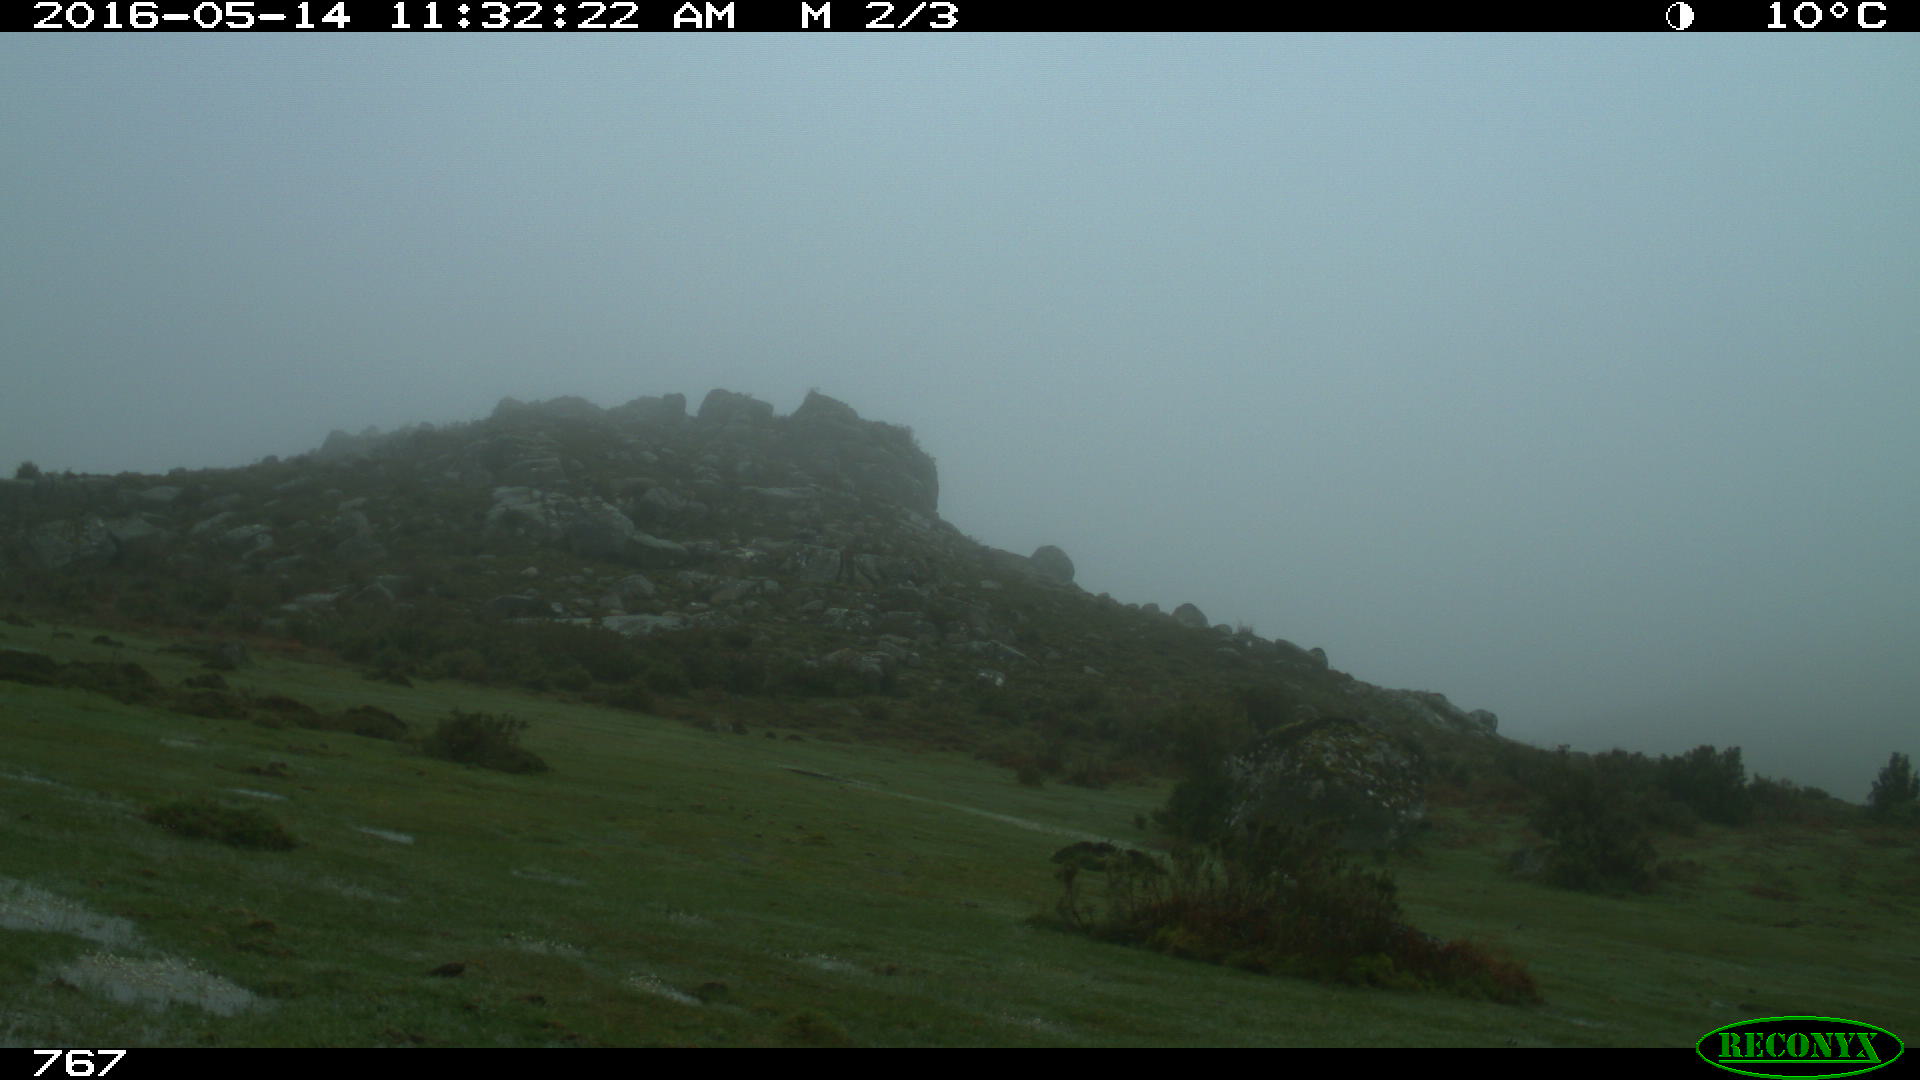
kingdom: Animalia
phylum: Chordata
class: Mammalia
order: Artiodactyla
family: Bovidae
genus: Bos
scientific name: Bos taurus
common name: Domesticated cattle
